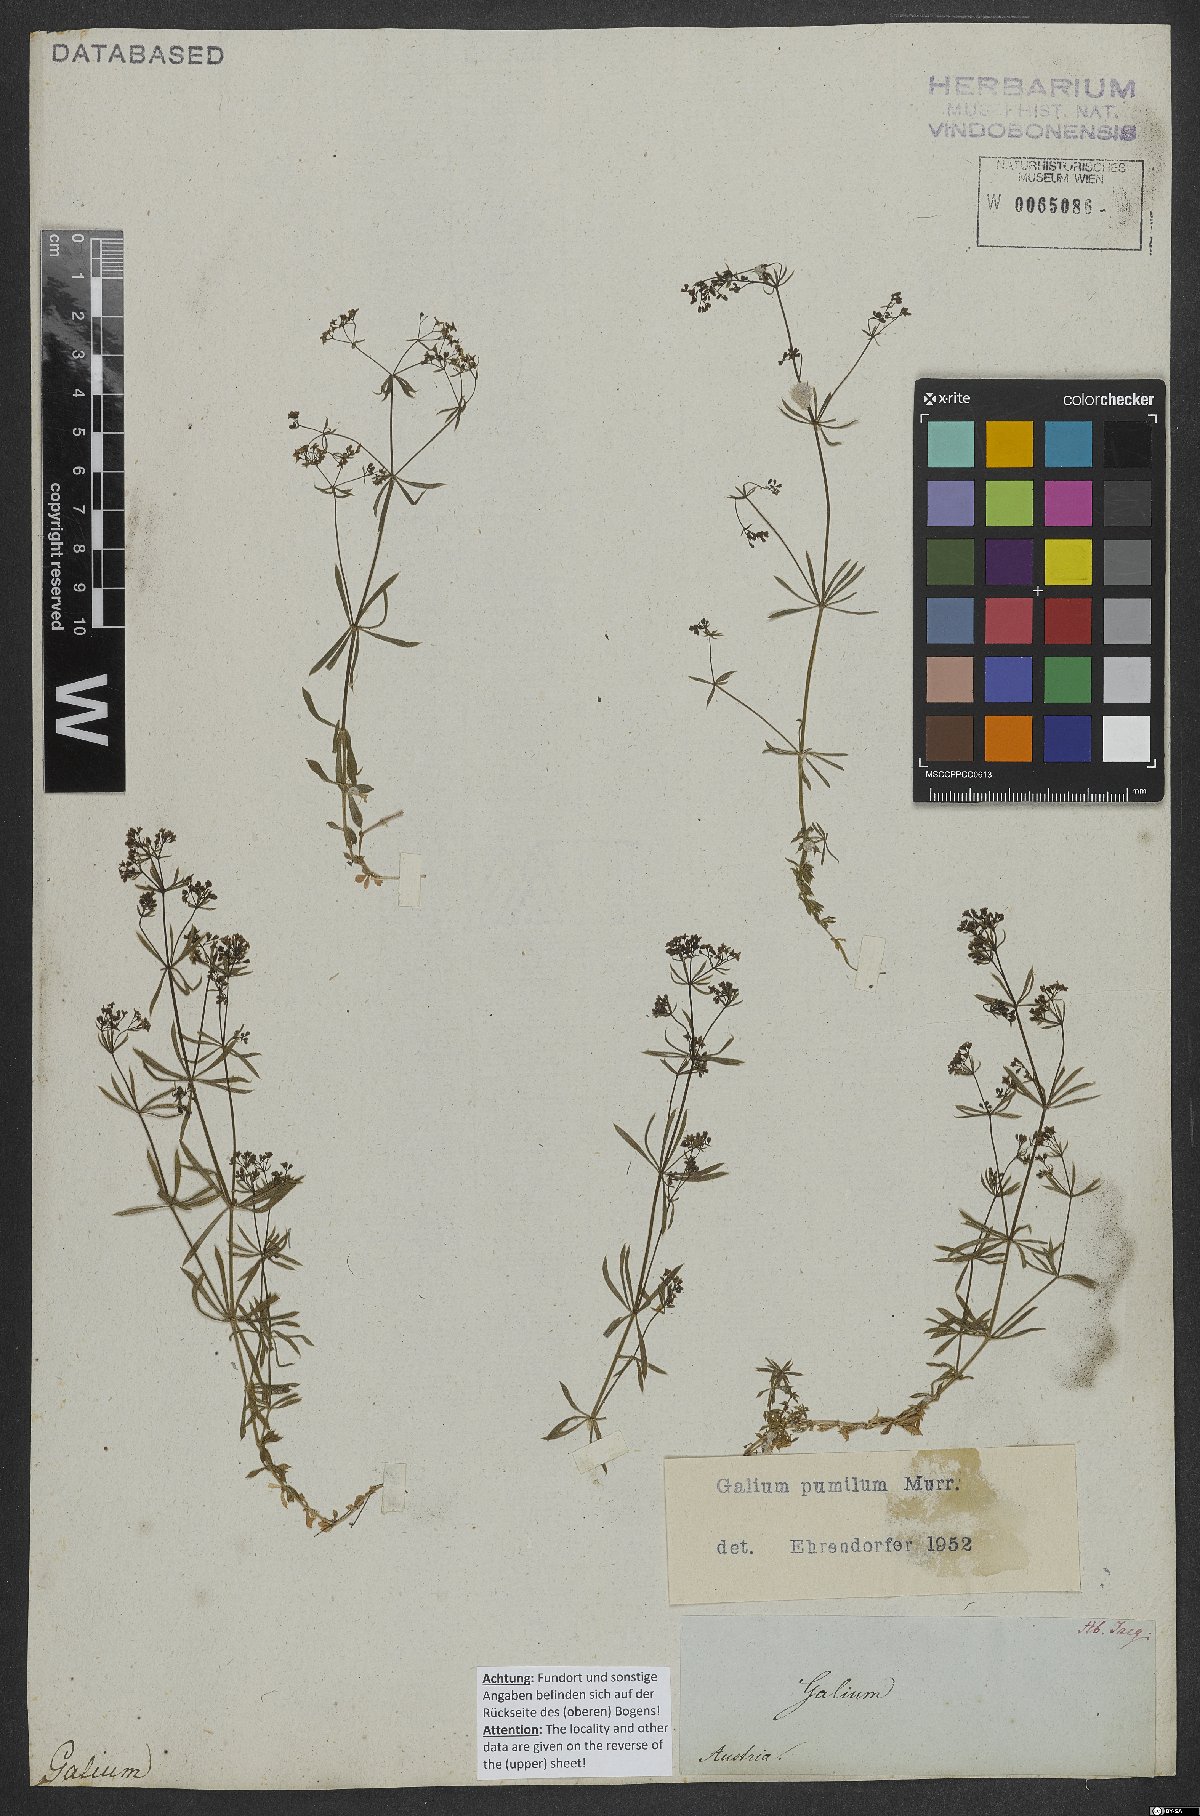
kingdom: Plantae
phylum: Tracheophyta
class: Magnoliopsida
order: Gentianales
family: Rubiaceae
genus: Galium
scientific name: Galium pumilum
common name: Slender bedstraw
